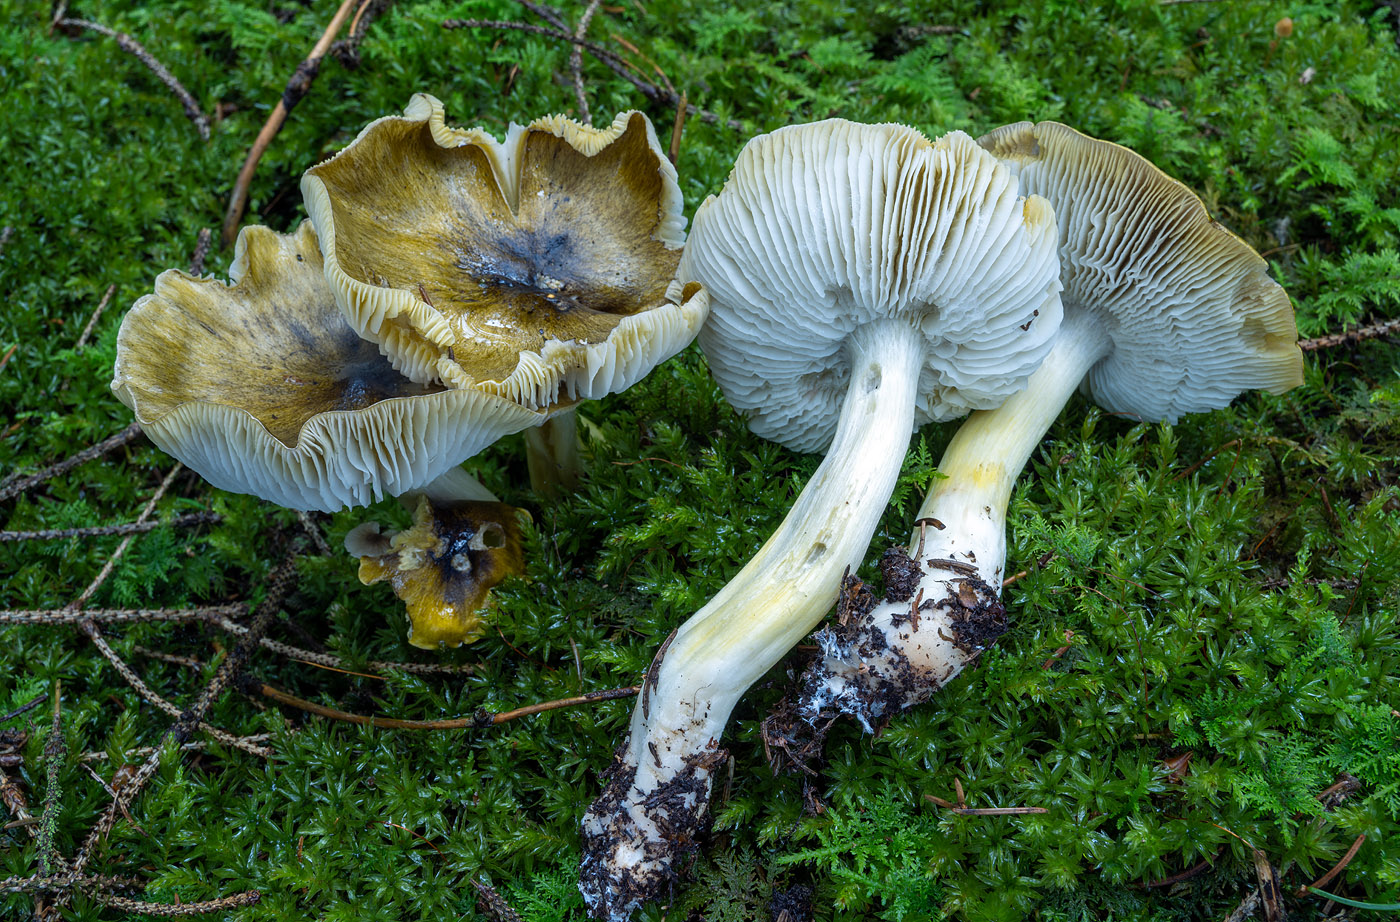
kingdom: Fungi
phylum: Basidiomycota
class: Agaricomycetes
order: Agaricales
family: Tricholomataceae
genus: Tricholoma
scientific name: Tricholoma viridilutescens
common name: sortøjet ridderhat
